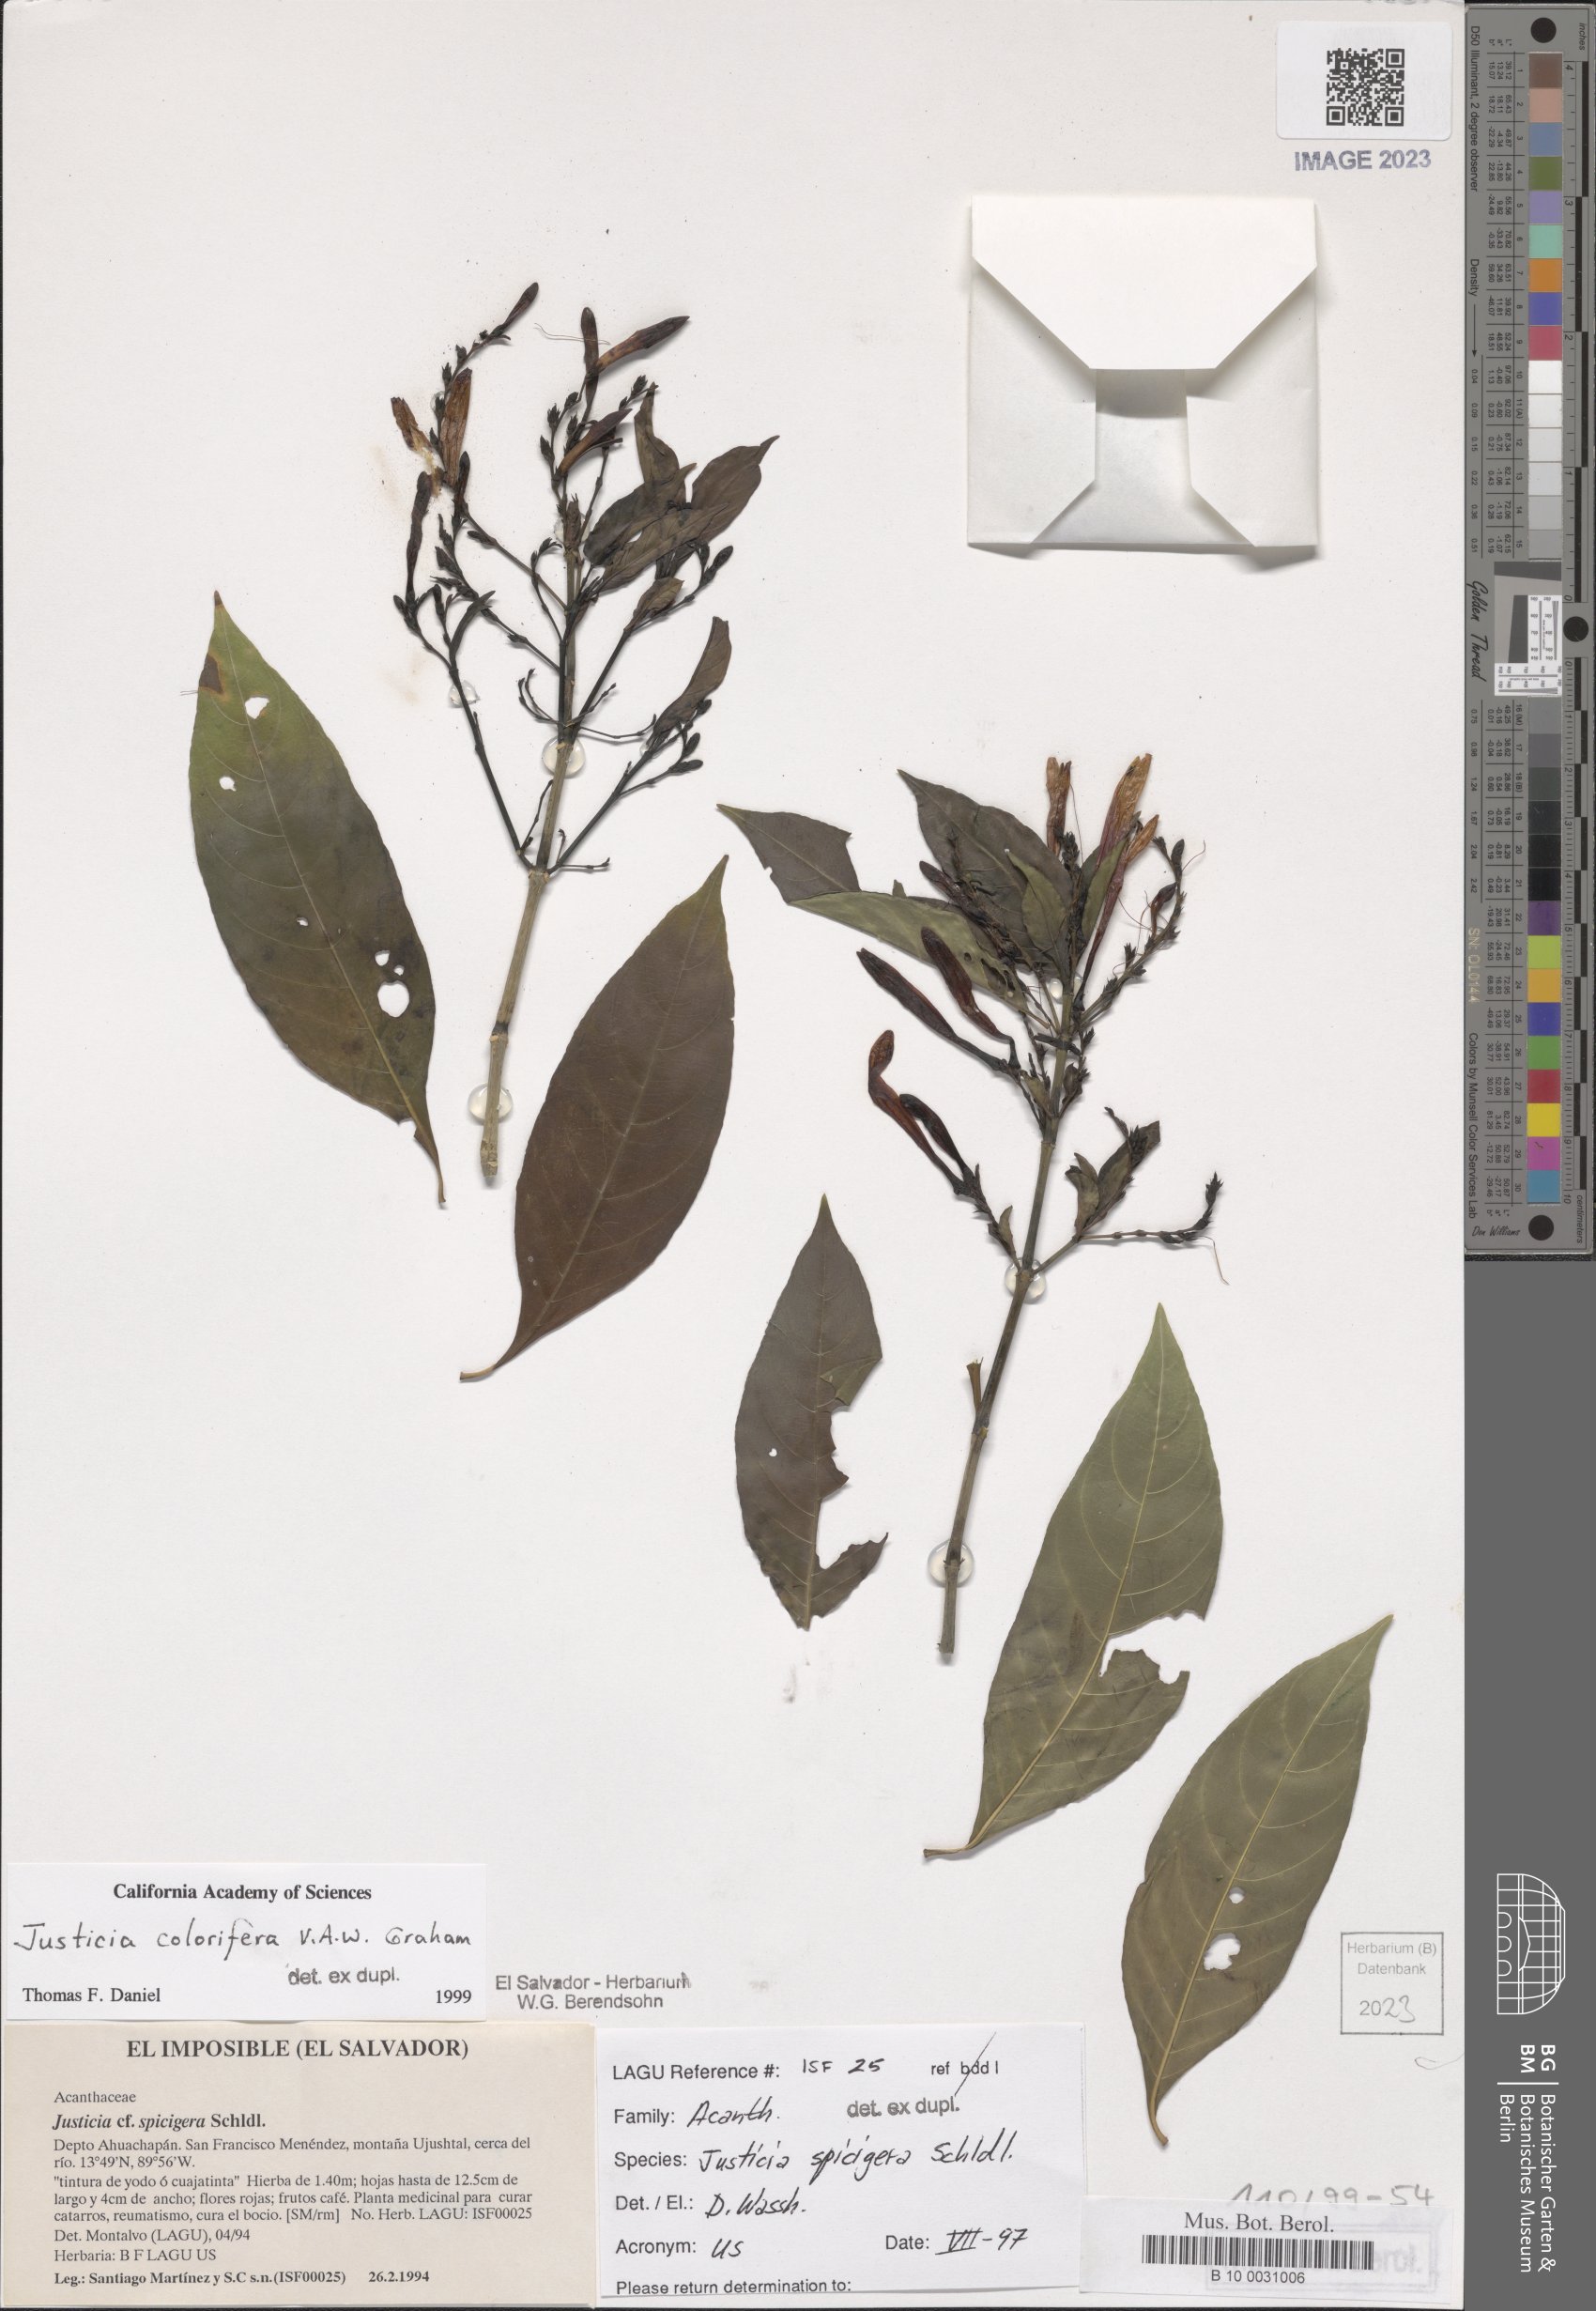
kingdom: Plantae
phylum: Tracheophyta
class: Magnoliopsida
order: Lamiales
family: Acanthaceae
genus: Justicia
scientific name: Justicia tinctoriella
